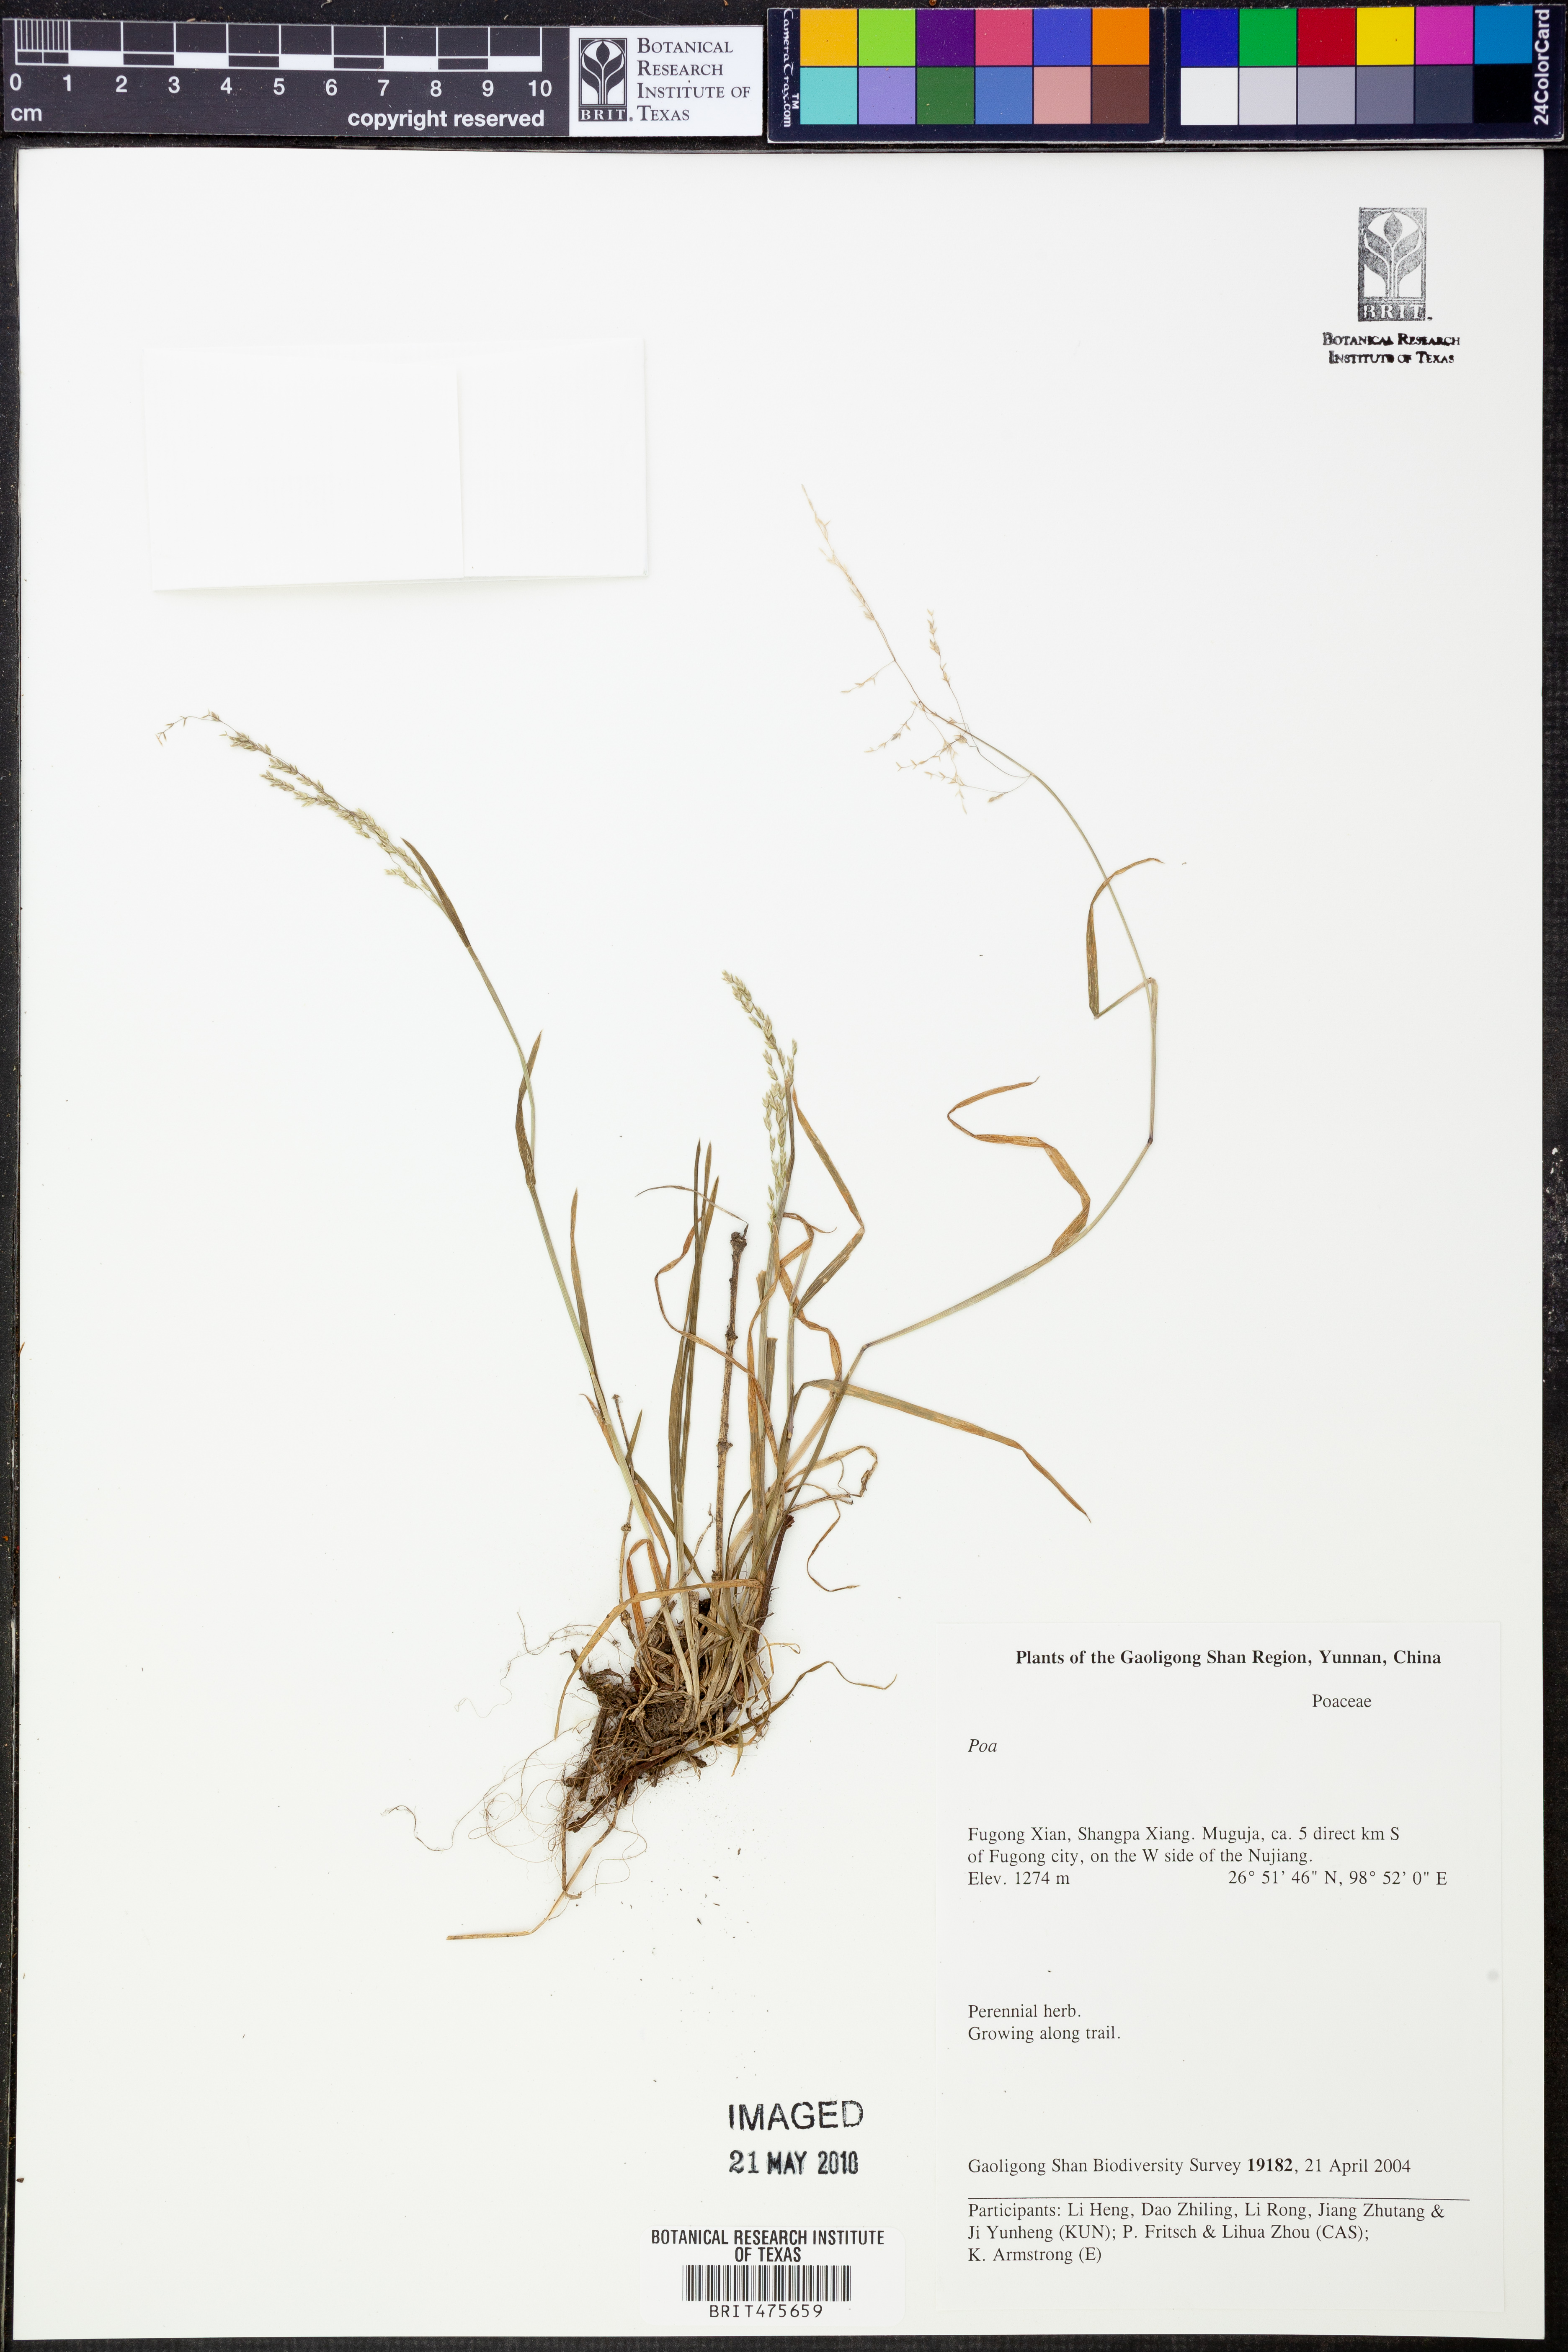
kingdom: Plantae
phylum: Tracheophyta
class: Liliopsida
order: Poales
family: Poaceae
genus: Poa
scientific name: Poa
